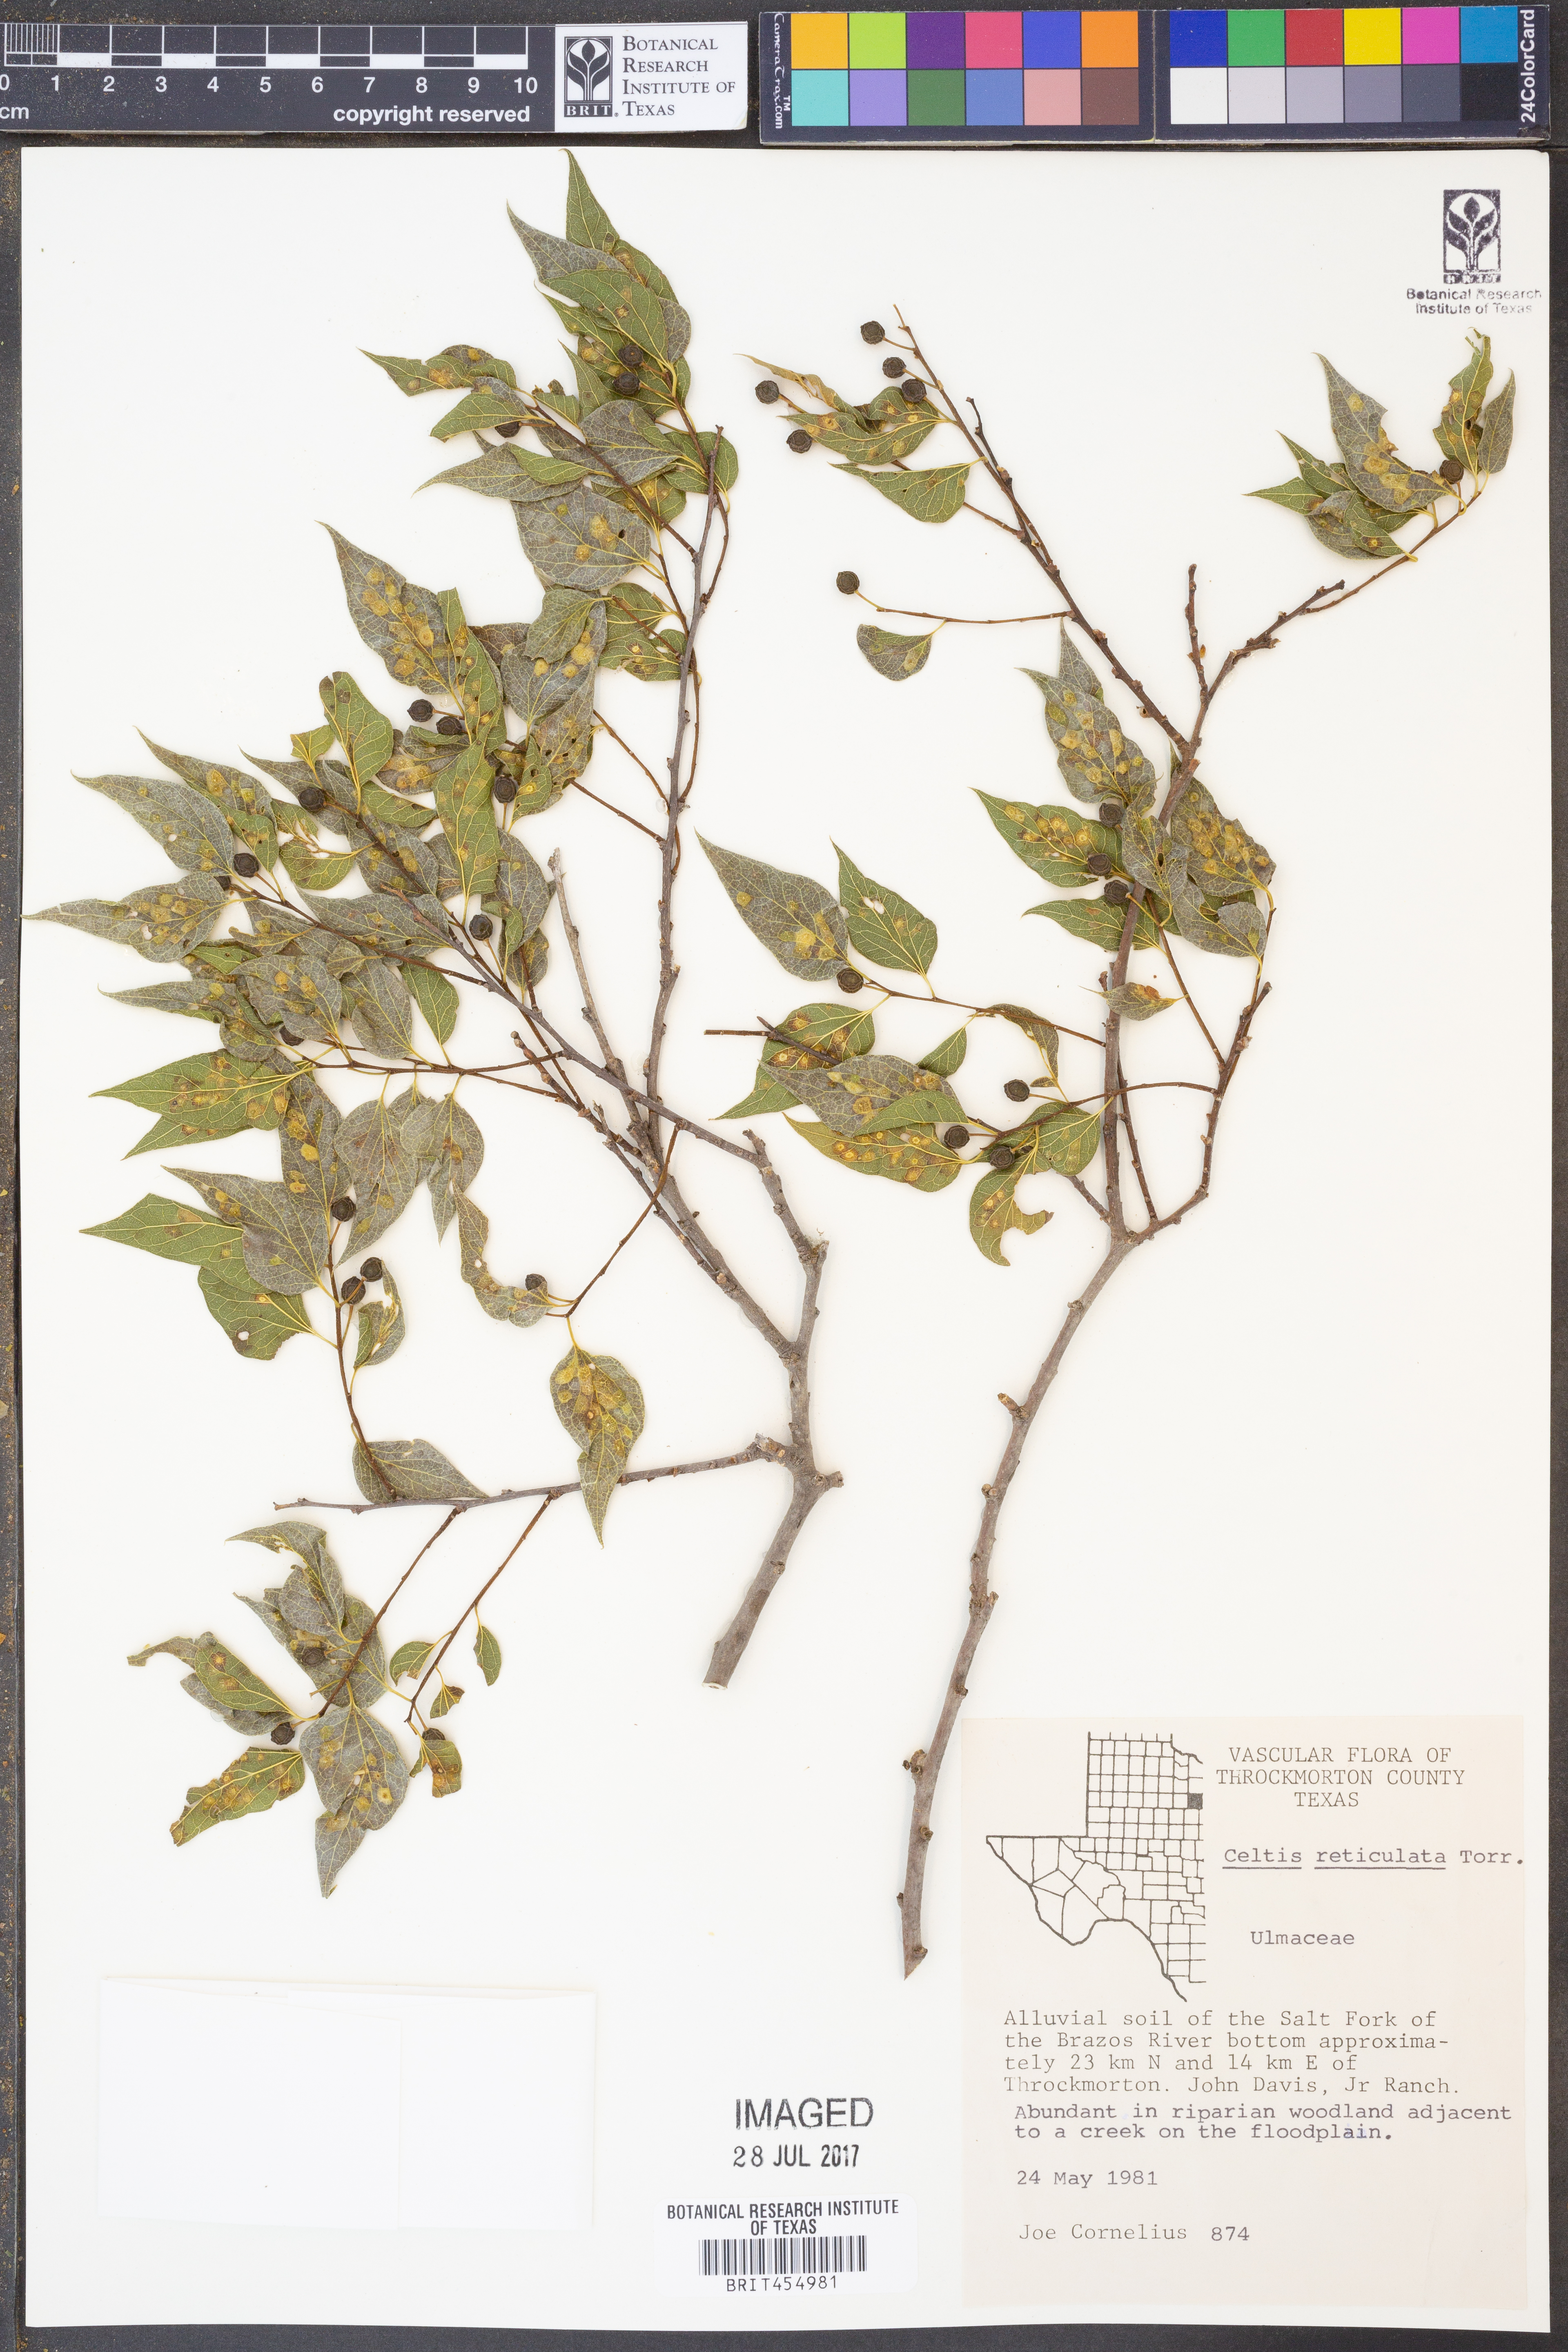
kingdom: Plantae
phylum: Tracheophyta
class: Magnoliopsida
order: Rosales
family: Cannabaceae
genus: Celtis
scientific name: Celtis reticulata
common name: Netleaf hackberry
